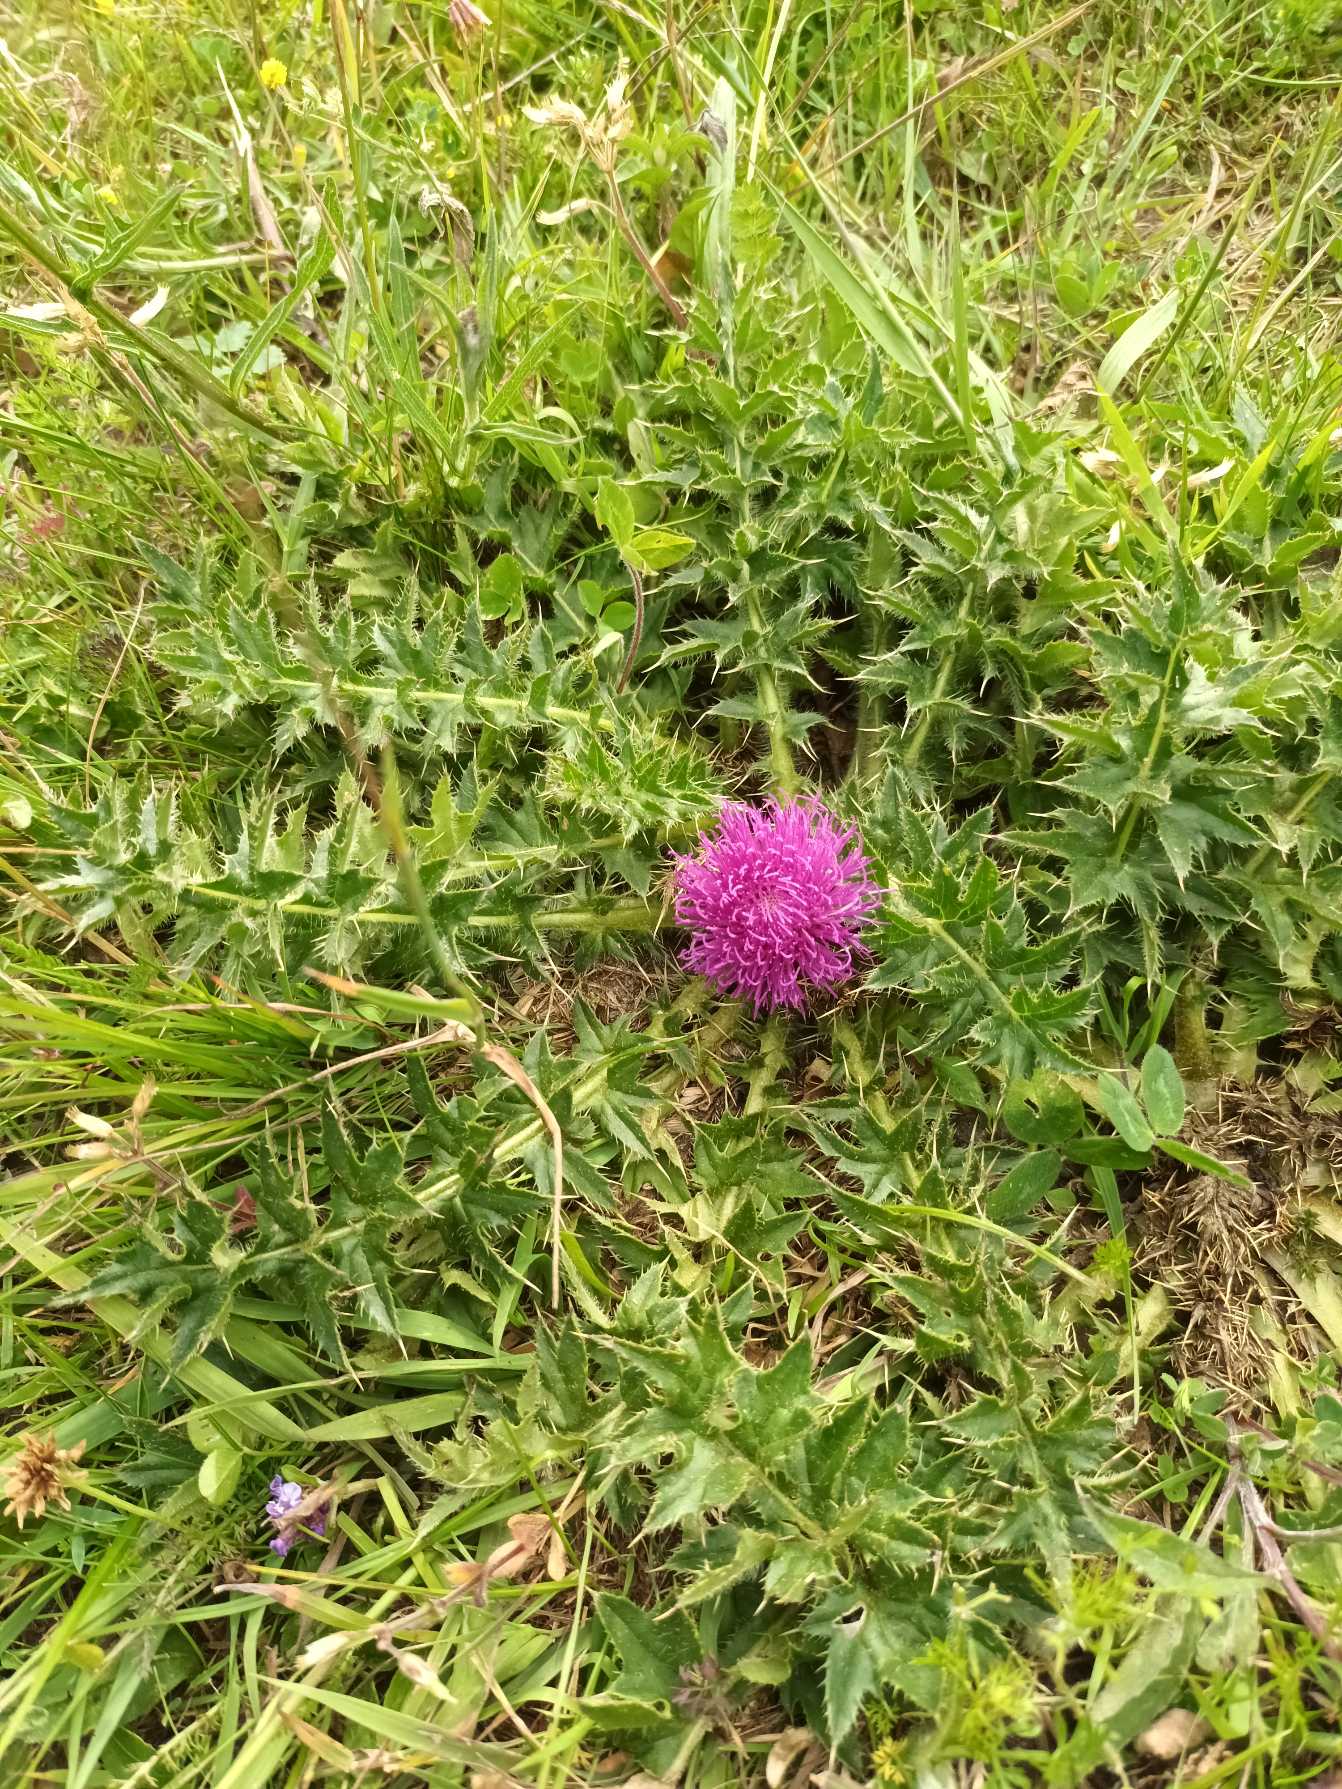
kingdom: Plantae
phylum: Tracheophyta
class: Magnoliopsida
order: Asterales
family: Asteraceae
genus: Cirsium
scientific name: Cirsium acaule
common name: Lav tidsel
